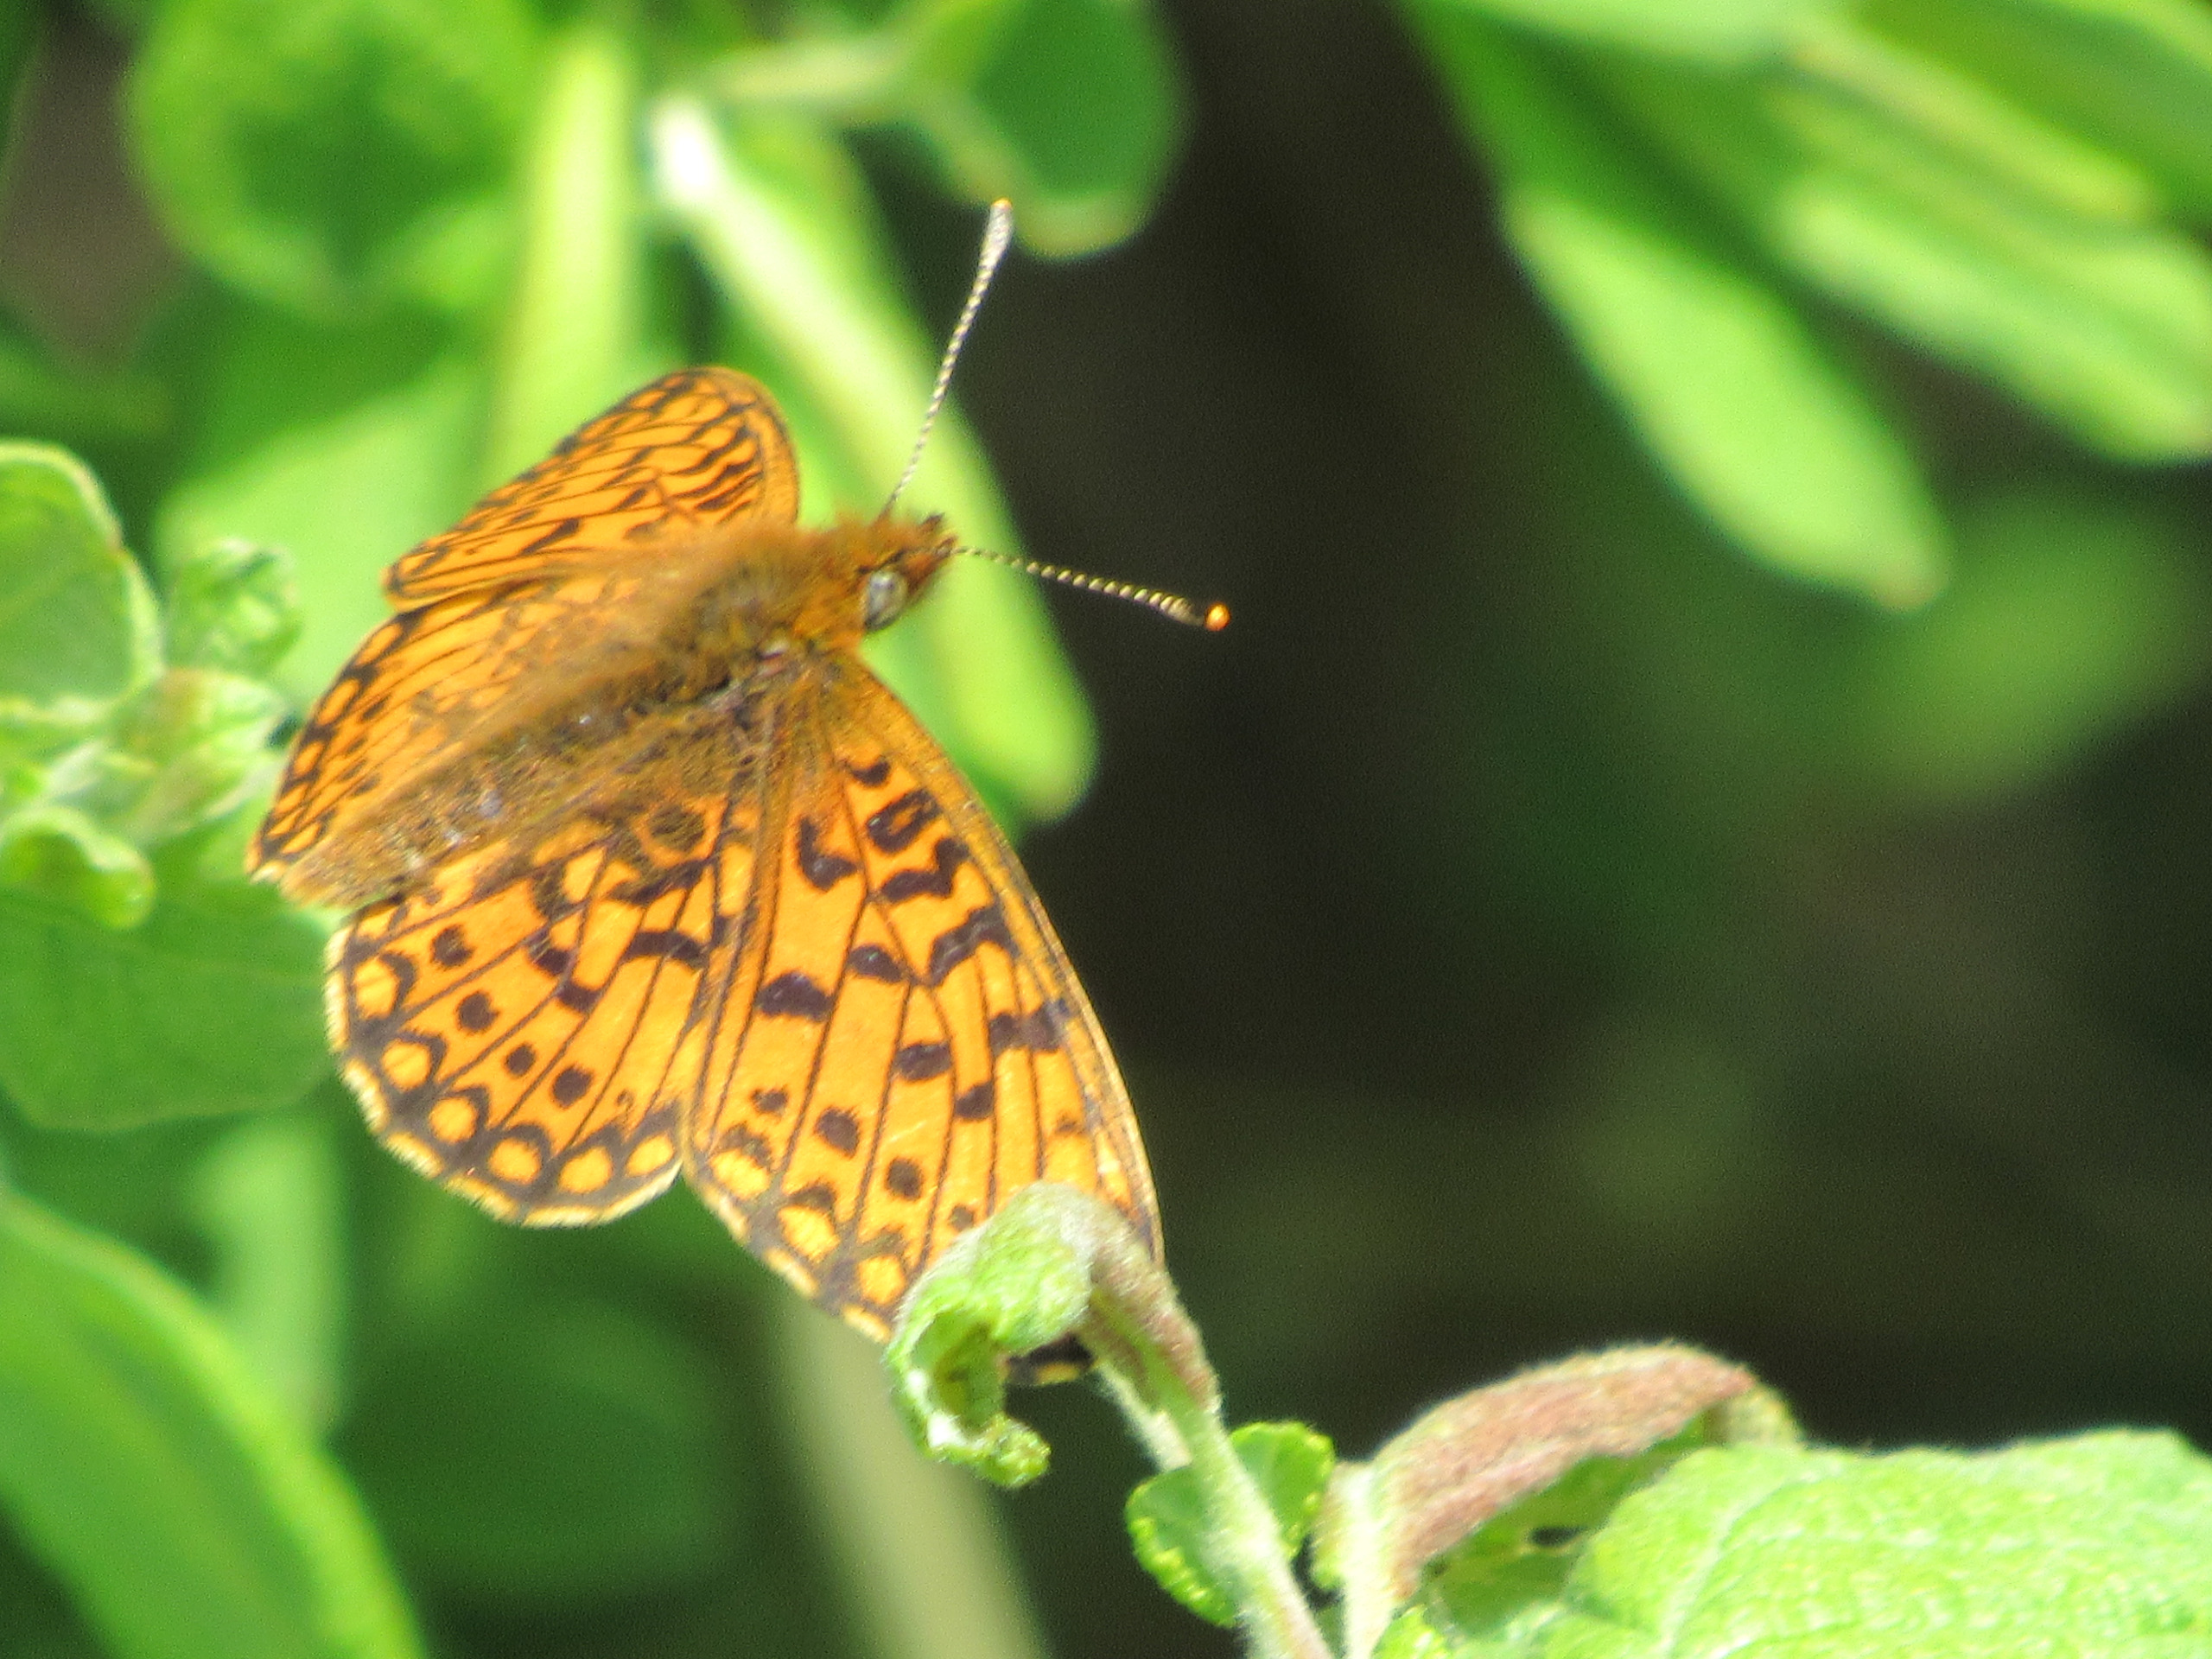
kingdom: Animalia
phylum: Arthropoda
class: Insecta
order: Lepidoptera
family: Nymphalidae
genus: Boloria
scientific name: Boloria selene
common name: Brunlig perlemorsommerfugl
